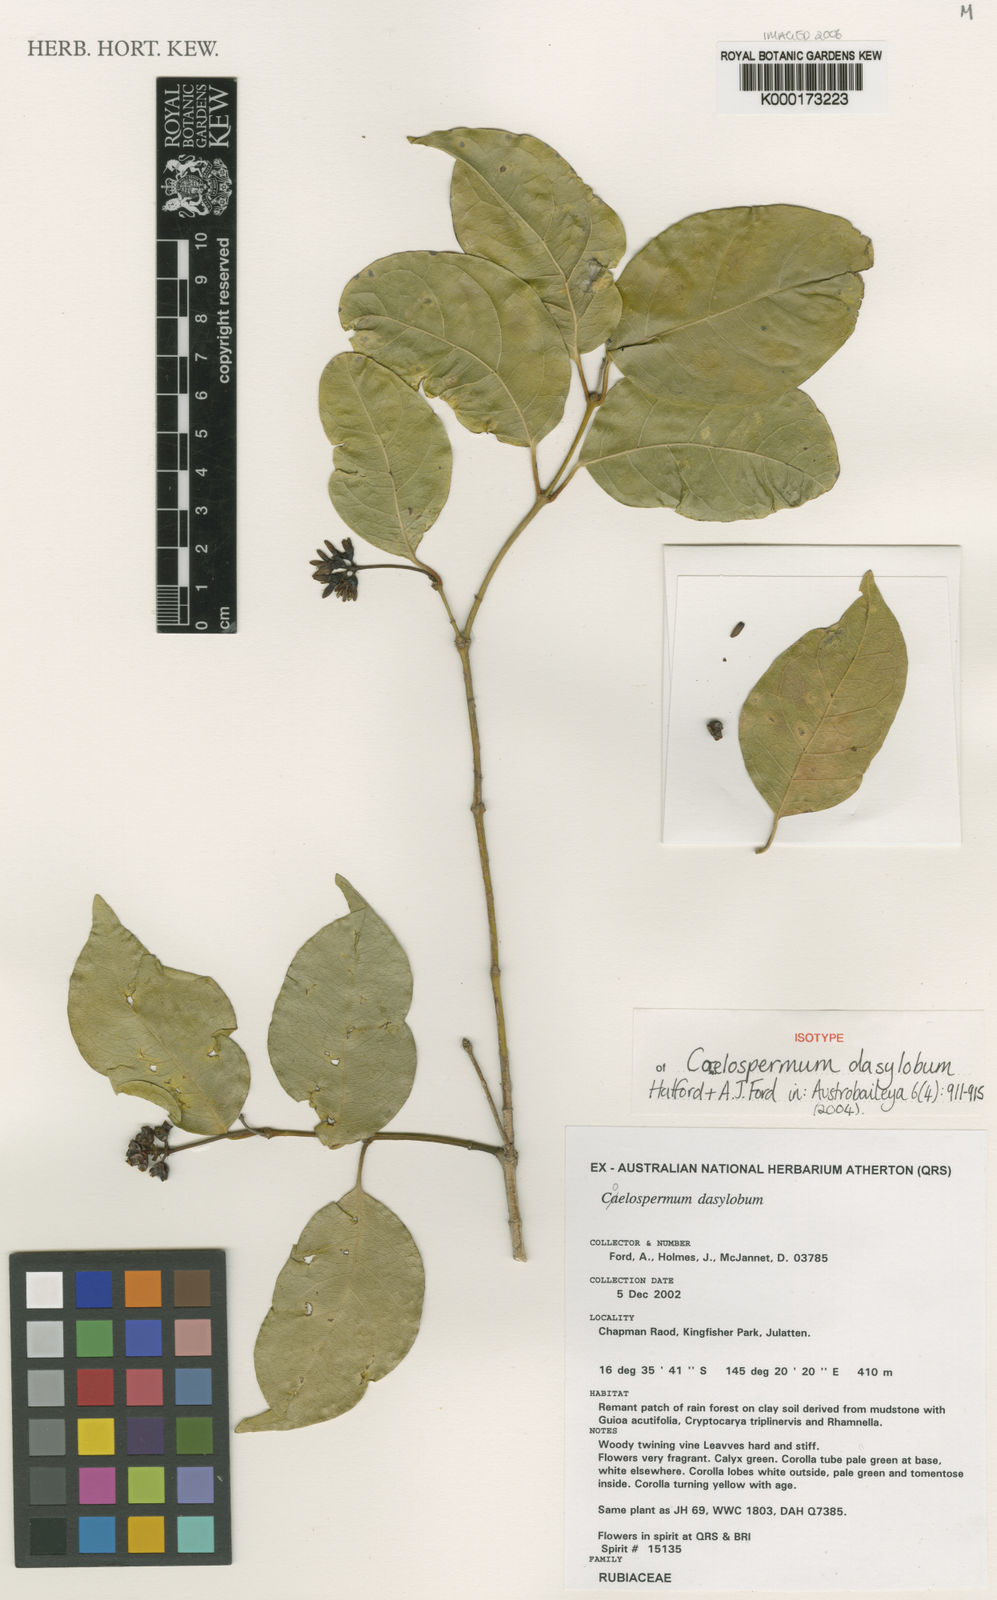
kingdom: Plantae
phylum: Tracheophyta
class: Magnoliopsida
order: Gentianales
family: Rubiaceae
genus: Coelospermum
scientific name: Coelospermum dasylobum
